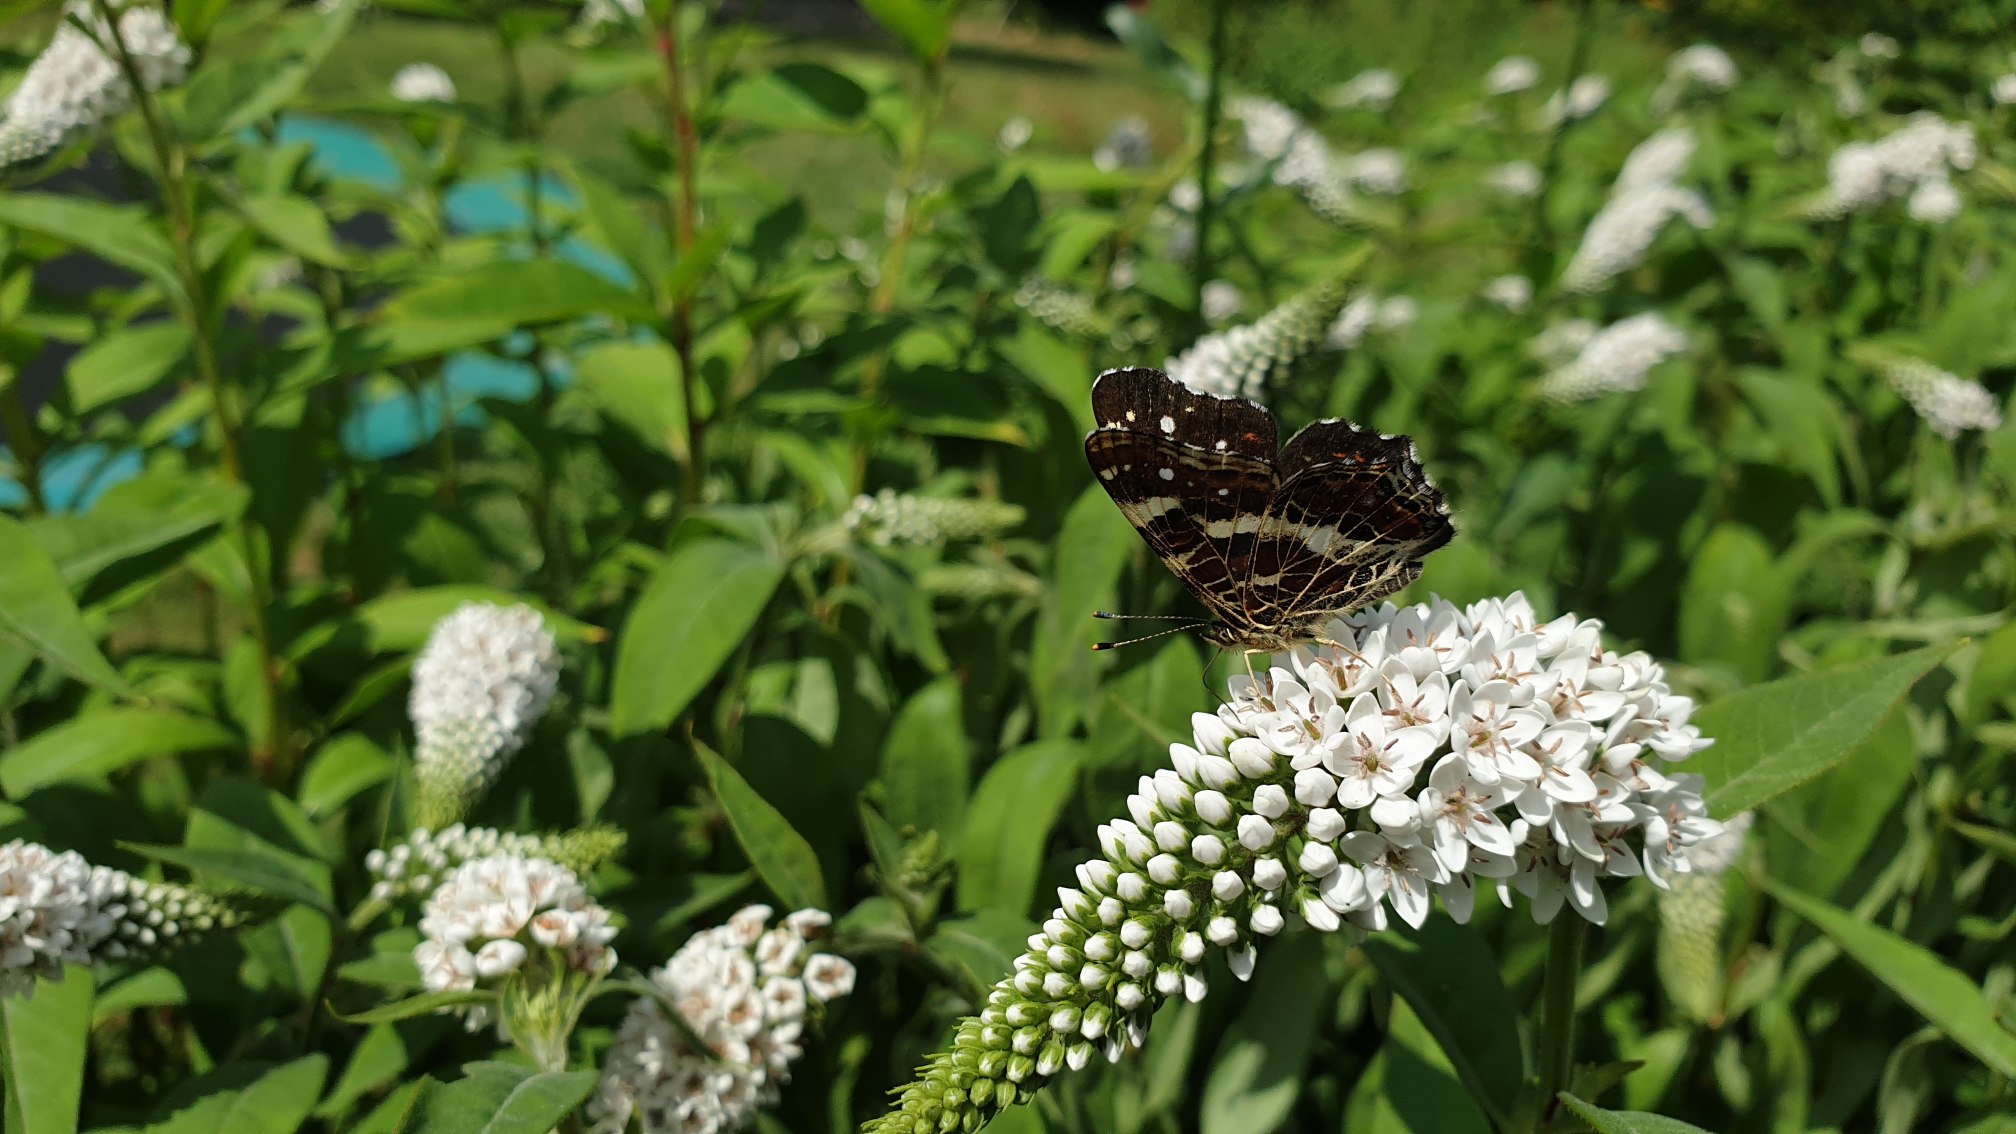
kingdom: Animalia
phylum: Arthropoda
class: Insecta
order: Lepidoptera
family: Nymphalidae
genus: Araschnia
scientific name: Araschnia levana
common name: Nældesommerfugl
